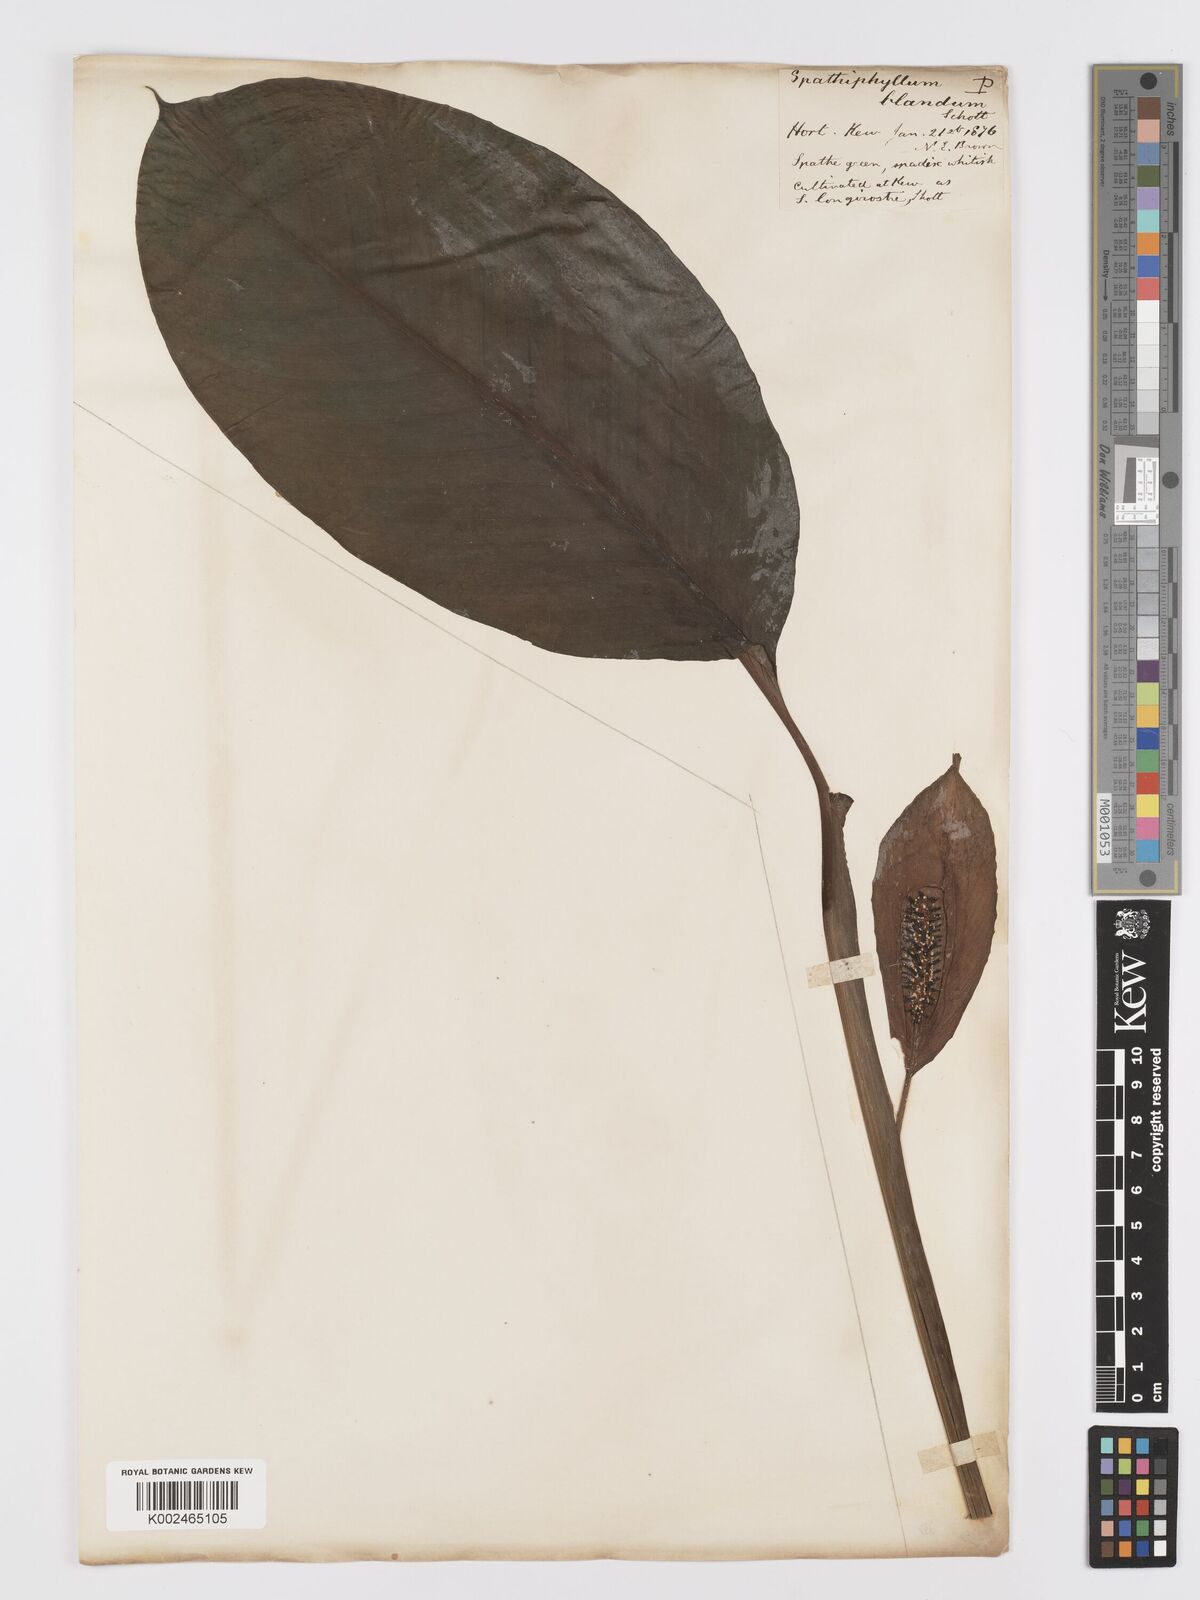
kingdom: Plantae
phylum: Tracheophyta
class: Liliopsida
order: Alismatales
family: Araceae
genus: Spathiphyllum
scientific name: Spathiphyllum blandum
